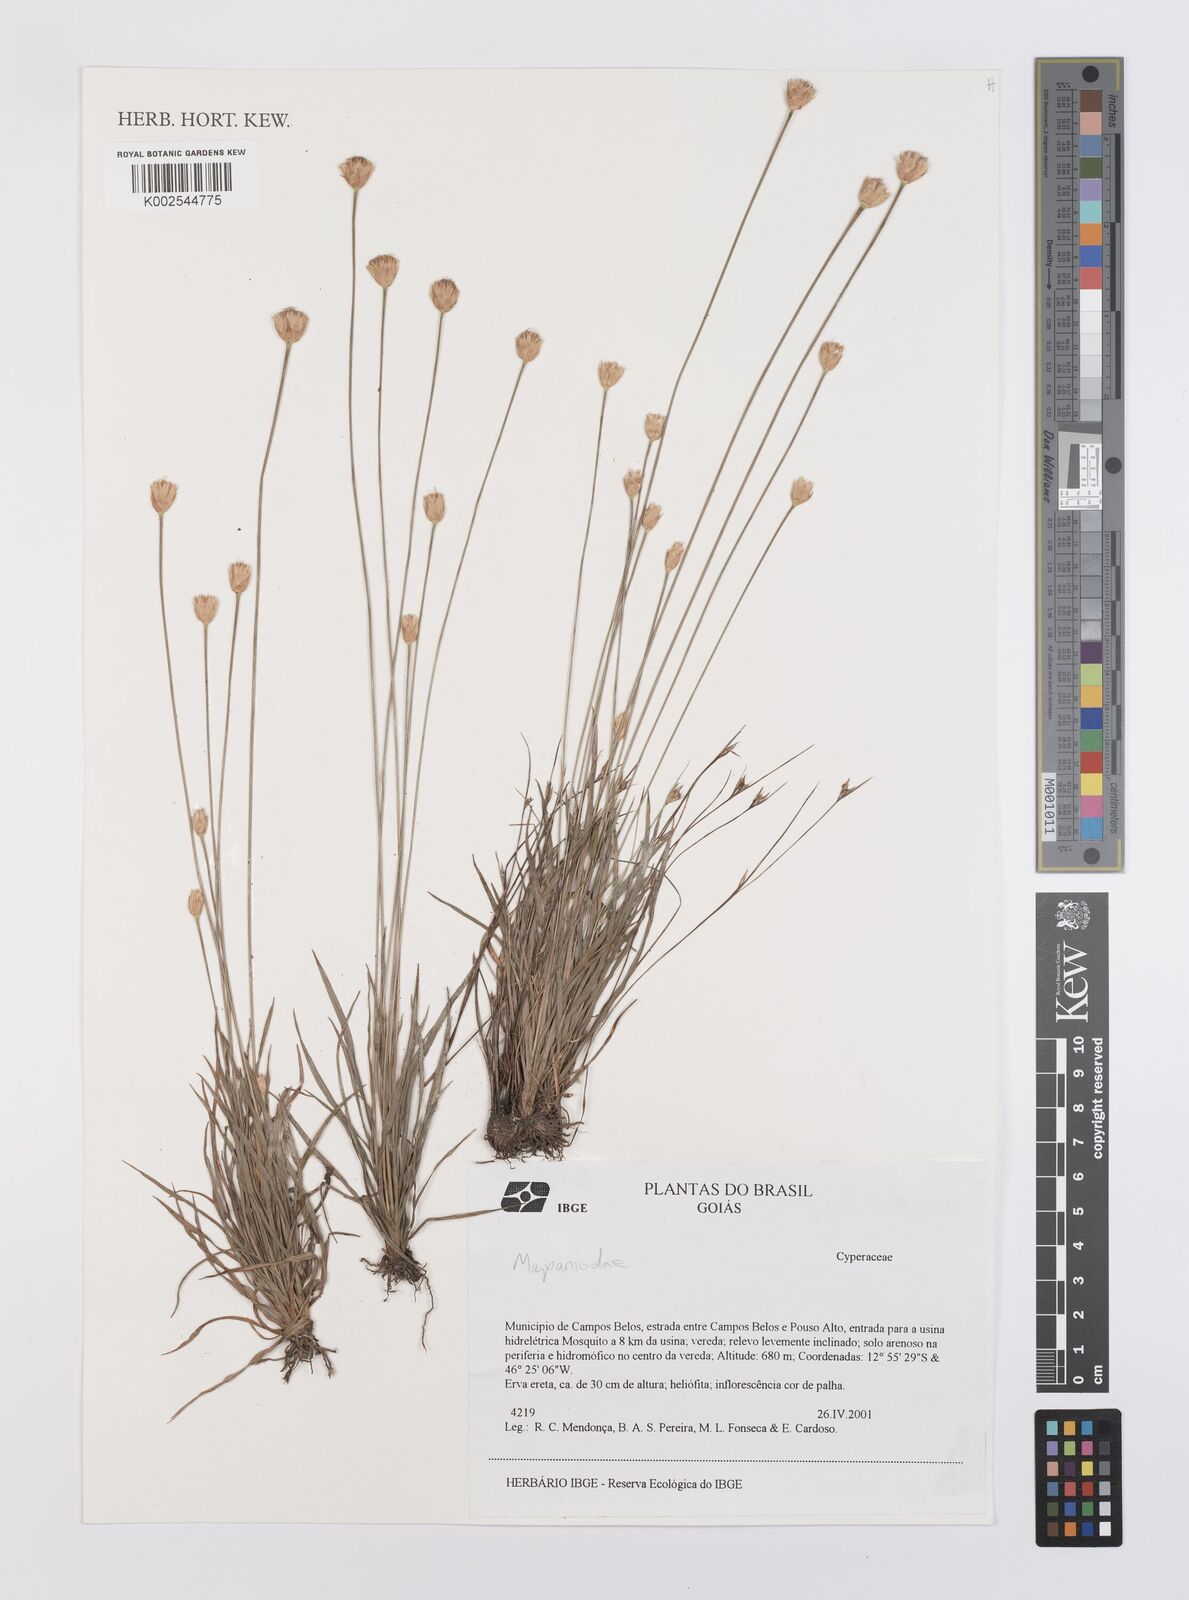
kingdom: Plantae
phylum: Tracheophyta
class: Liliopsida
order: Poales
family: Cyperaceae
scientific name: Cyperaceae
